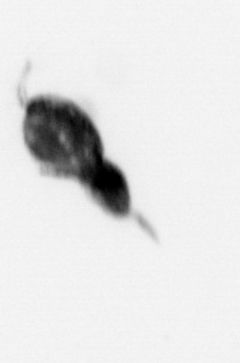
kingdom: Animalia
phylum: Arthropoda
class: Copepoda
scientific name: Copepoda
